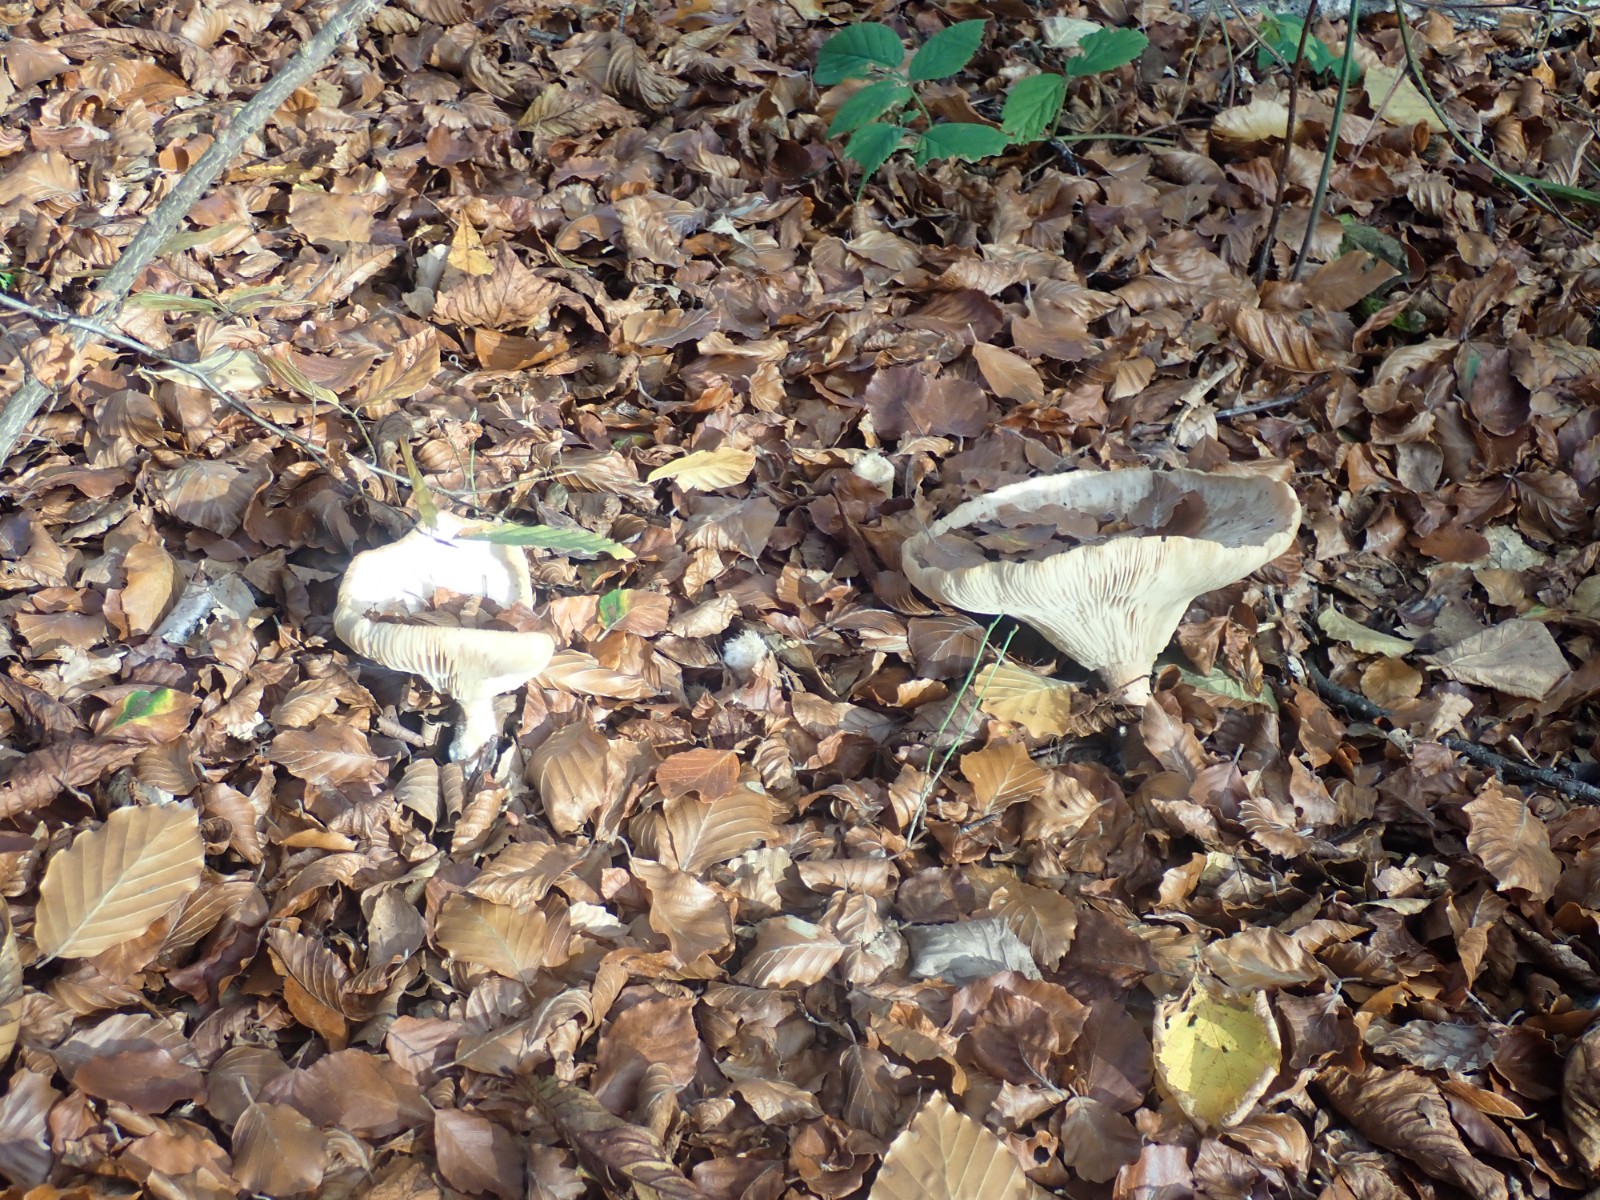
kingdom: Fungi
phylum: Basidiomycota
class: Agaricomycetes
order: Agaricales
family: Tricholomataceae
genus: Infundibulicybe
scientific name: Infundibulicybe geotropa
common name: stor tragthat
